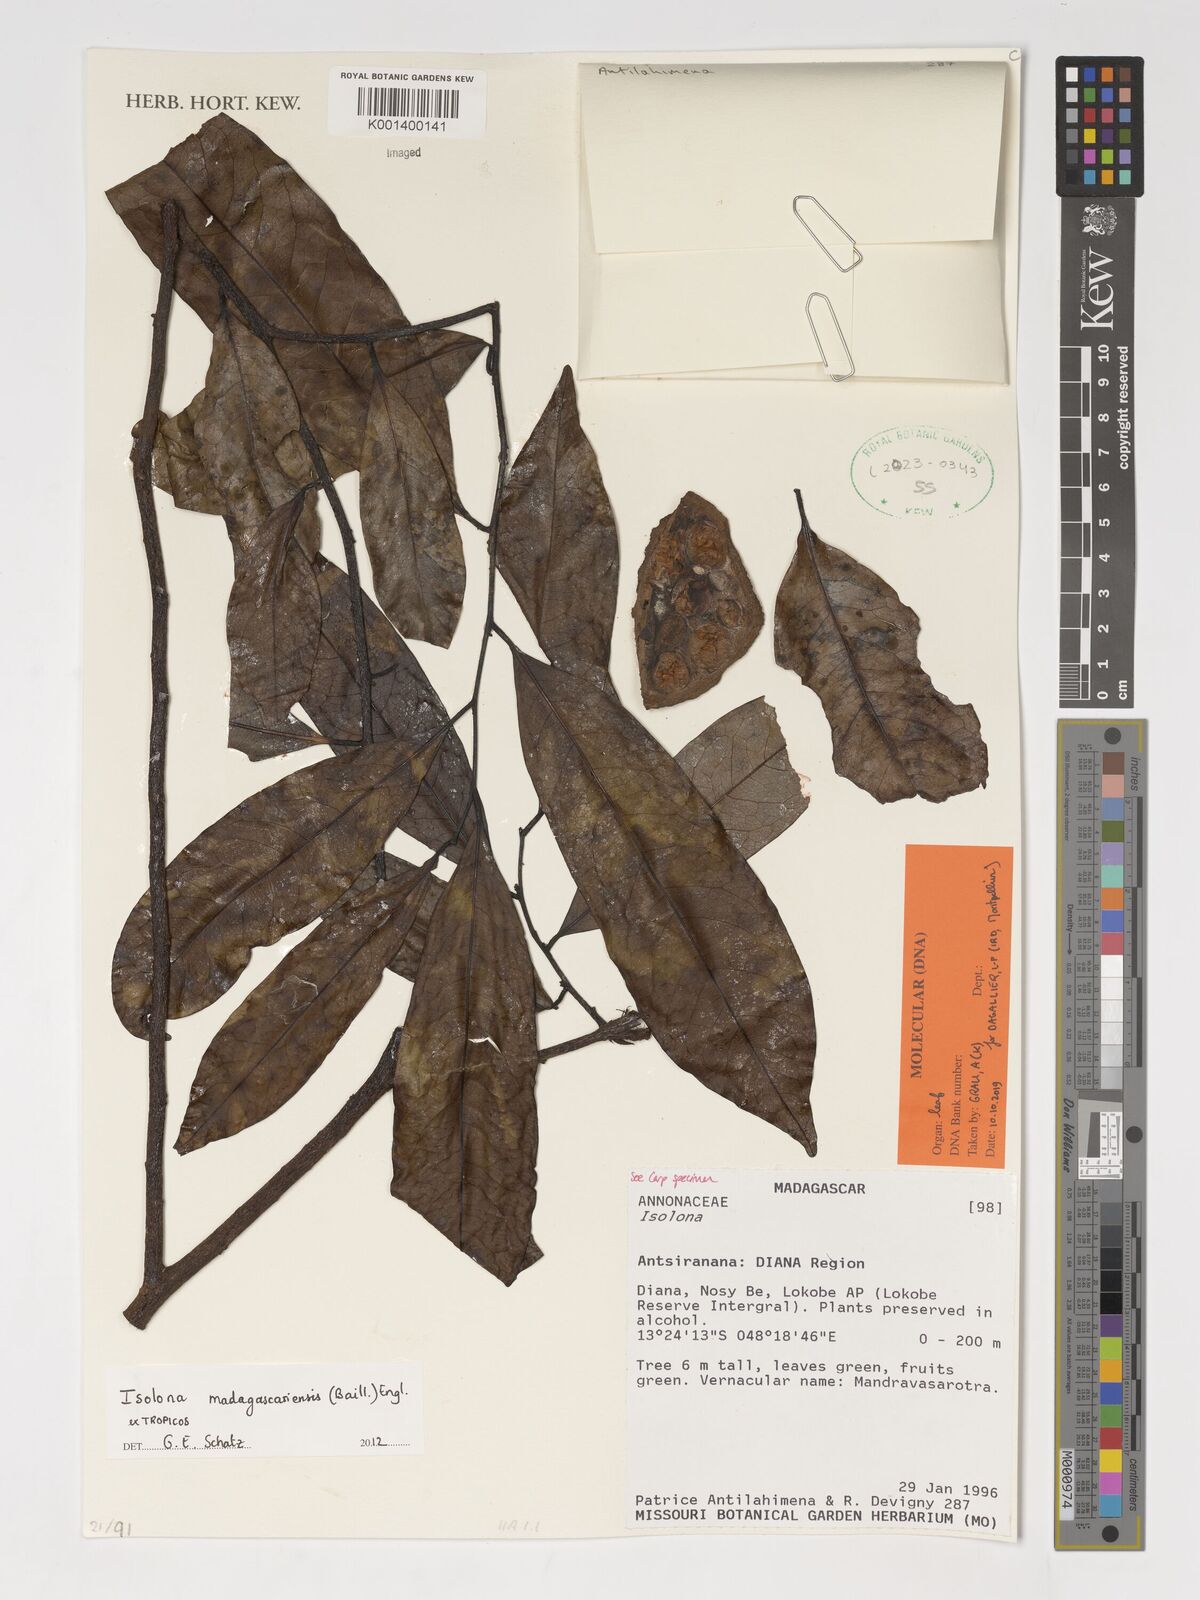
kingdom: Plantae
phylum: Tracheophyta
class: Magnoliopsida
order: Magnoliales
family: Annonaceae
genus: Isolona
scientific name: Isolona madagascariensis
